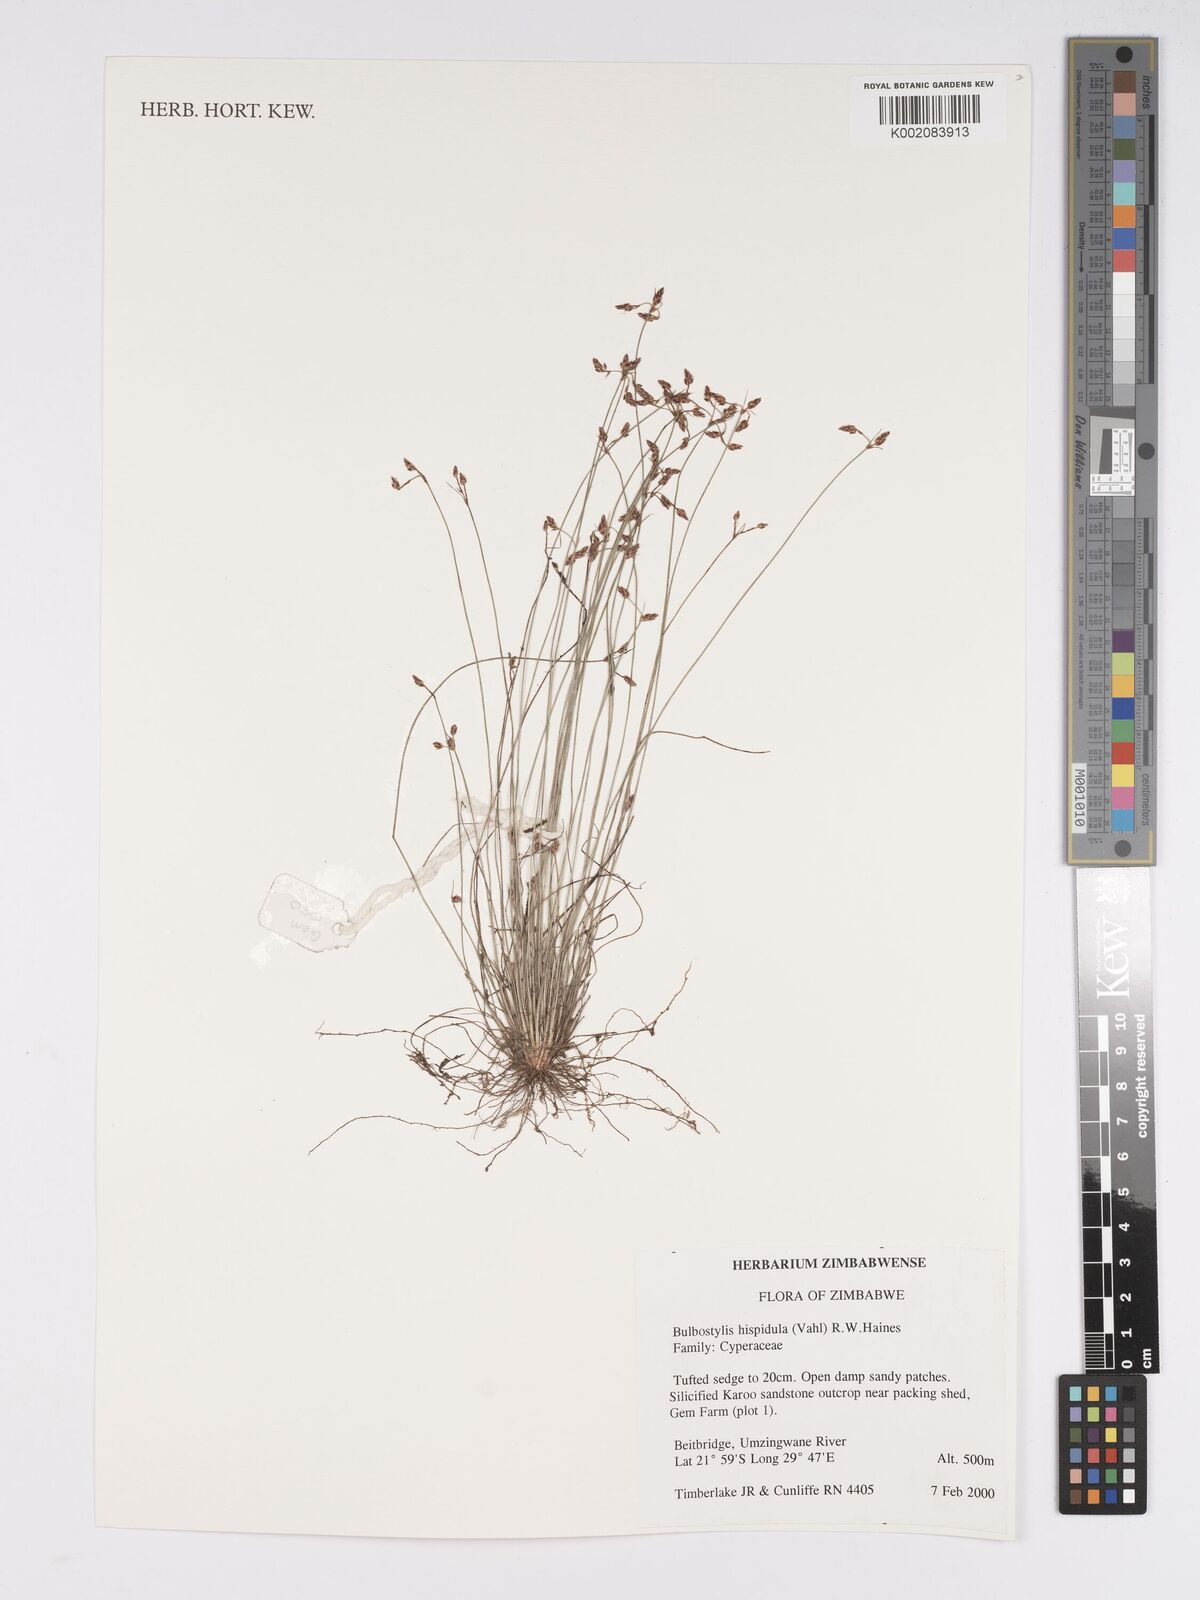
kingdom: Plantae
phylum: Tracheophyta
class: Liliopsida
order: Poales
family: Cyperaceae
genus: Bulbostylis
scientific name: Bulbostylis hispidula
